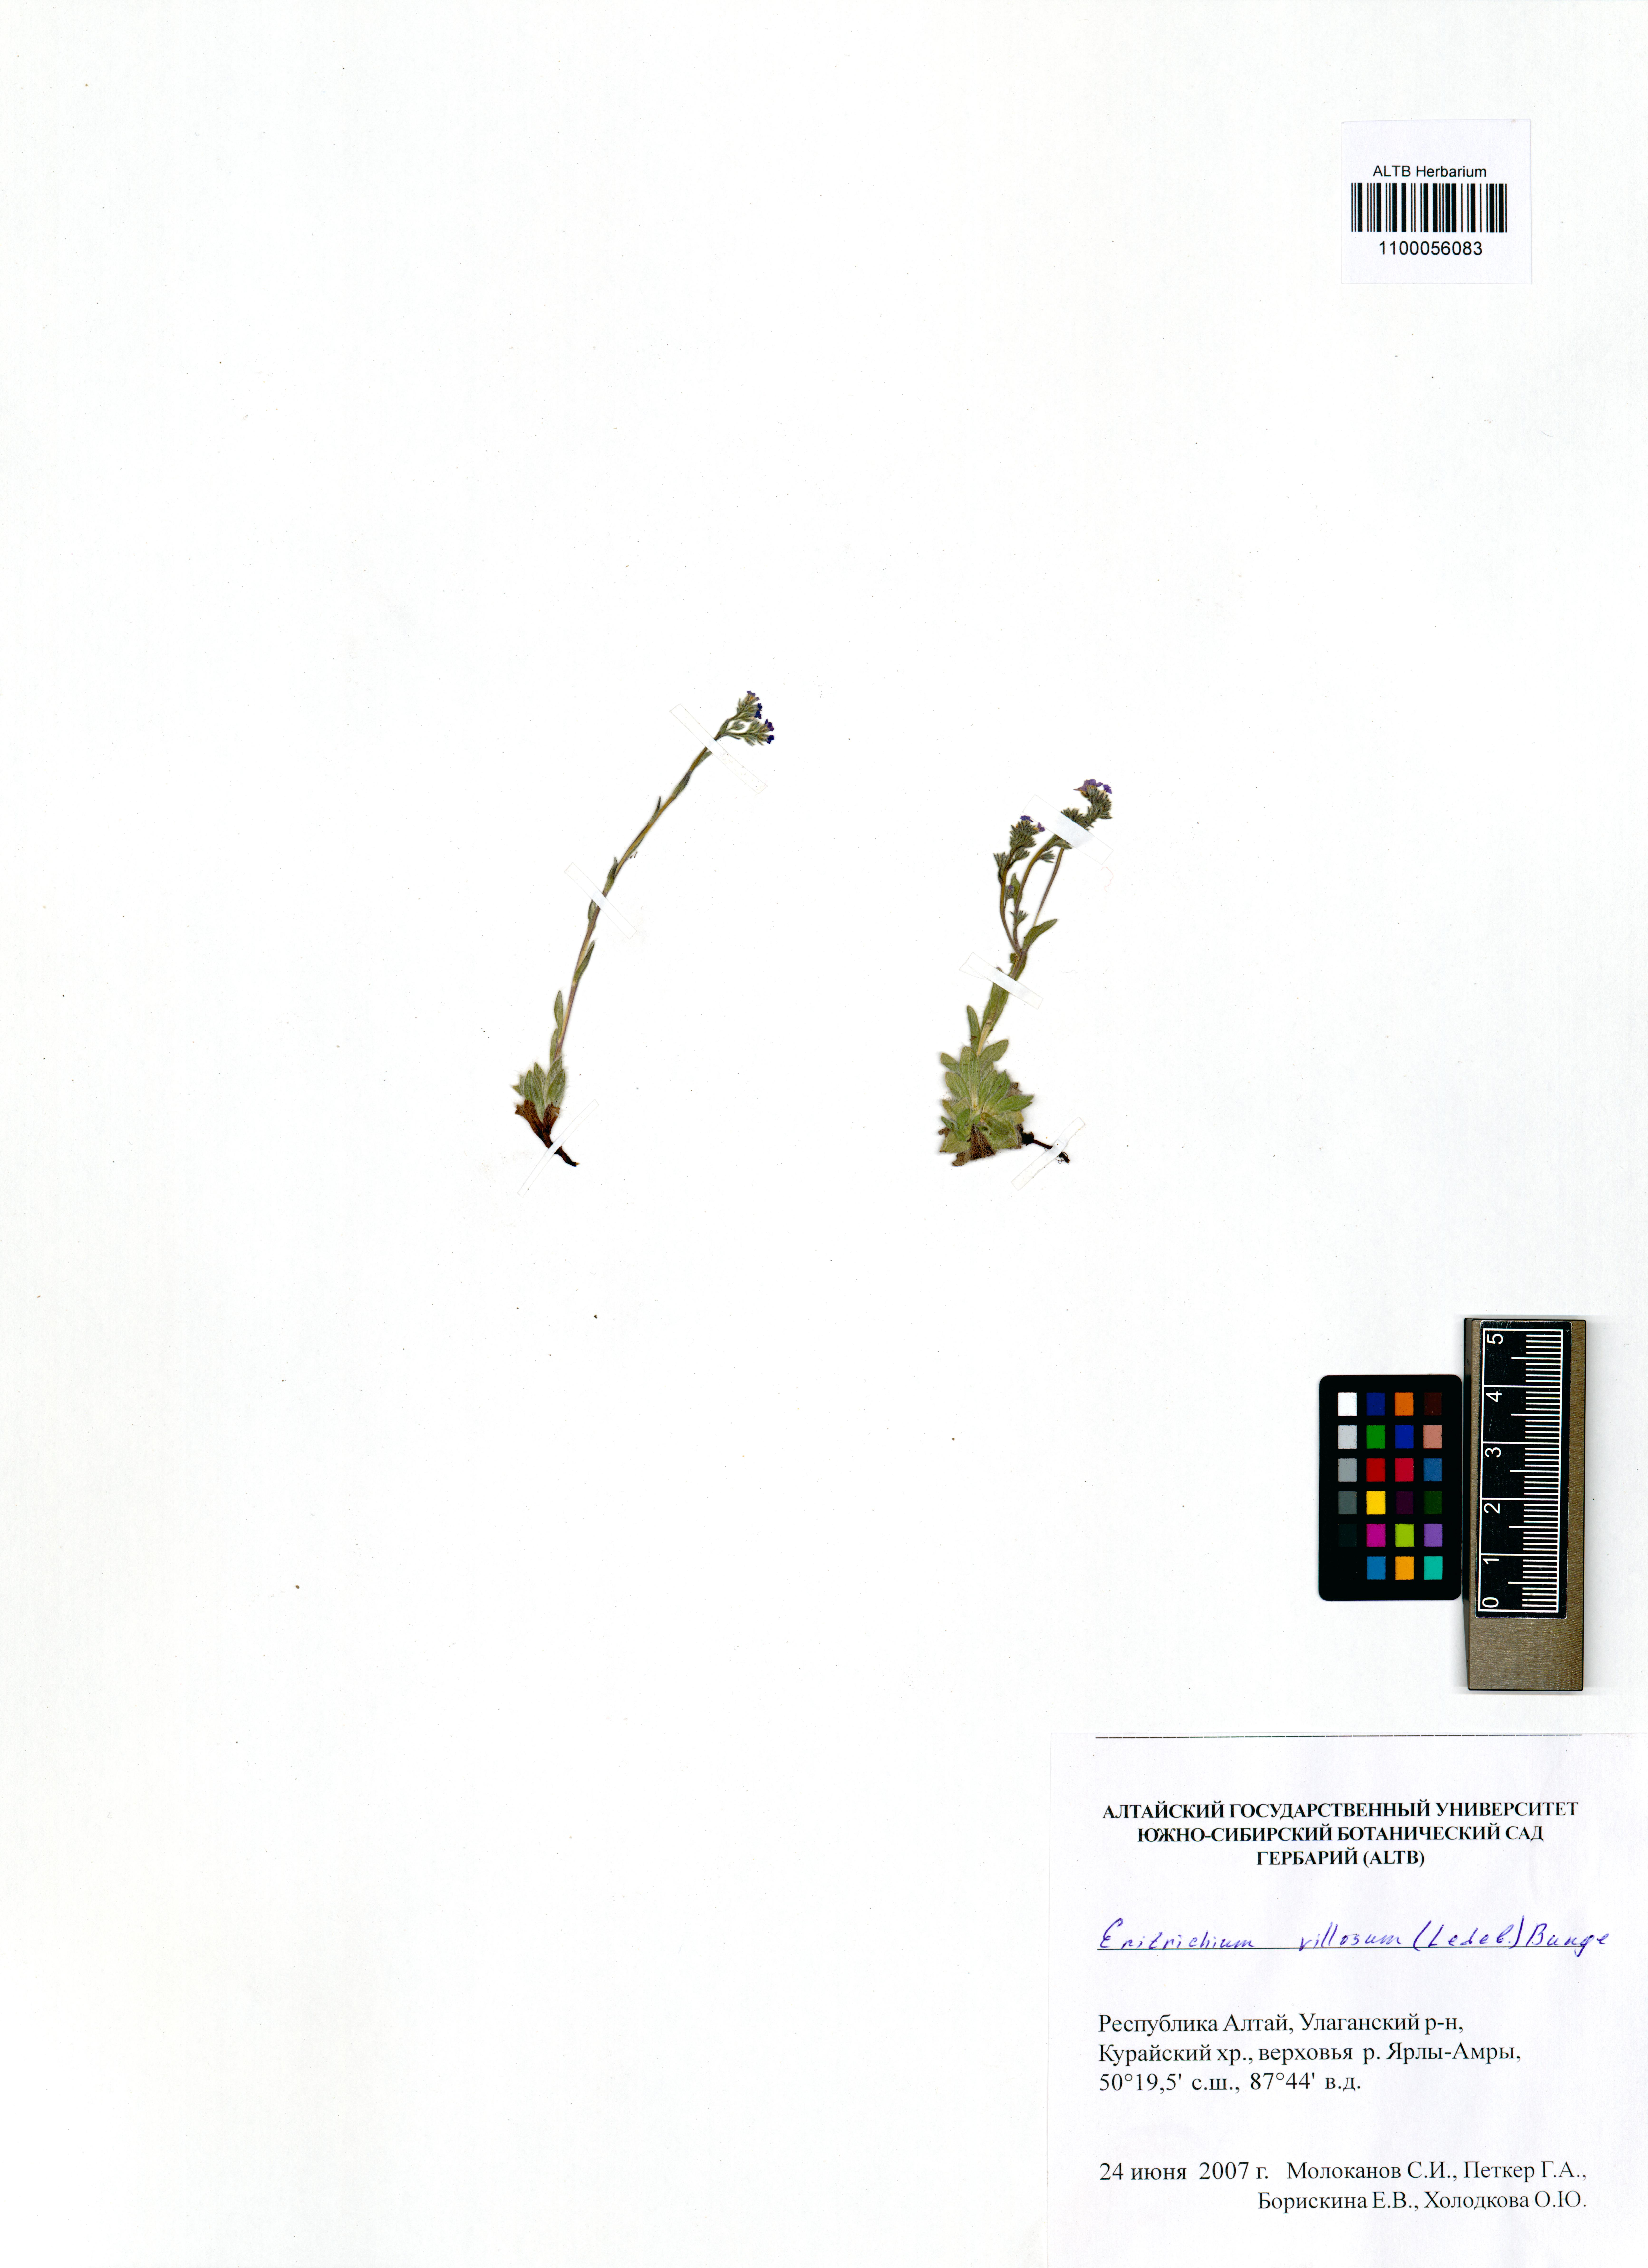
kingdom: Plantae
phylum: Tracheophyta
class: Magnoliopsida
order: Boraginales
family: Boraginaceae
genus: Eritrichium
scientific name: Eritrichium villosum
